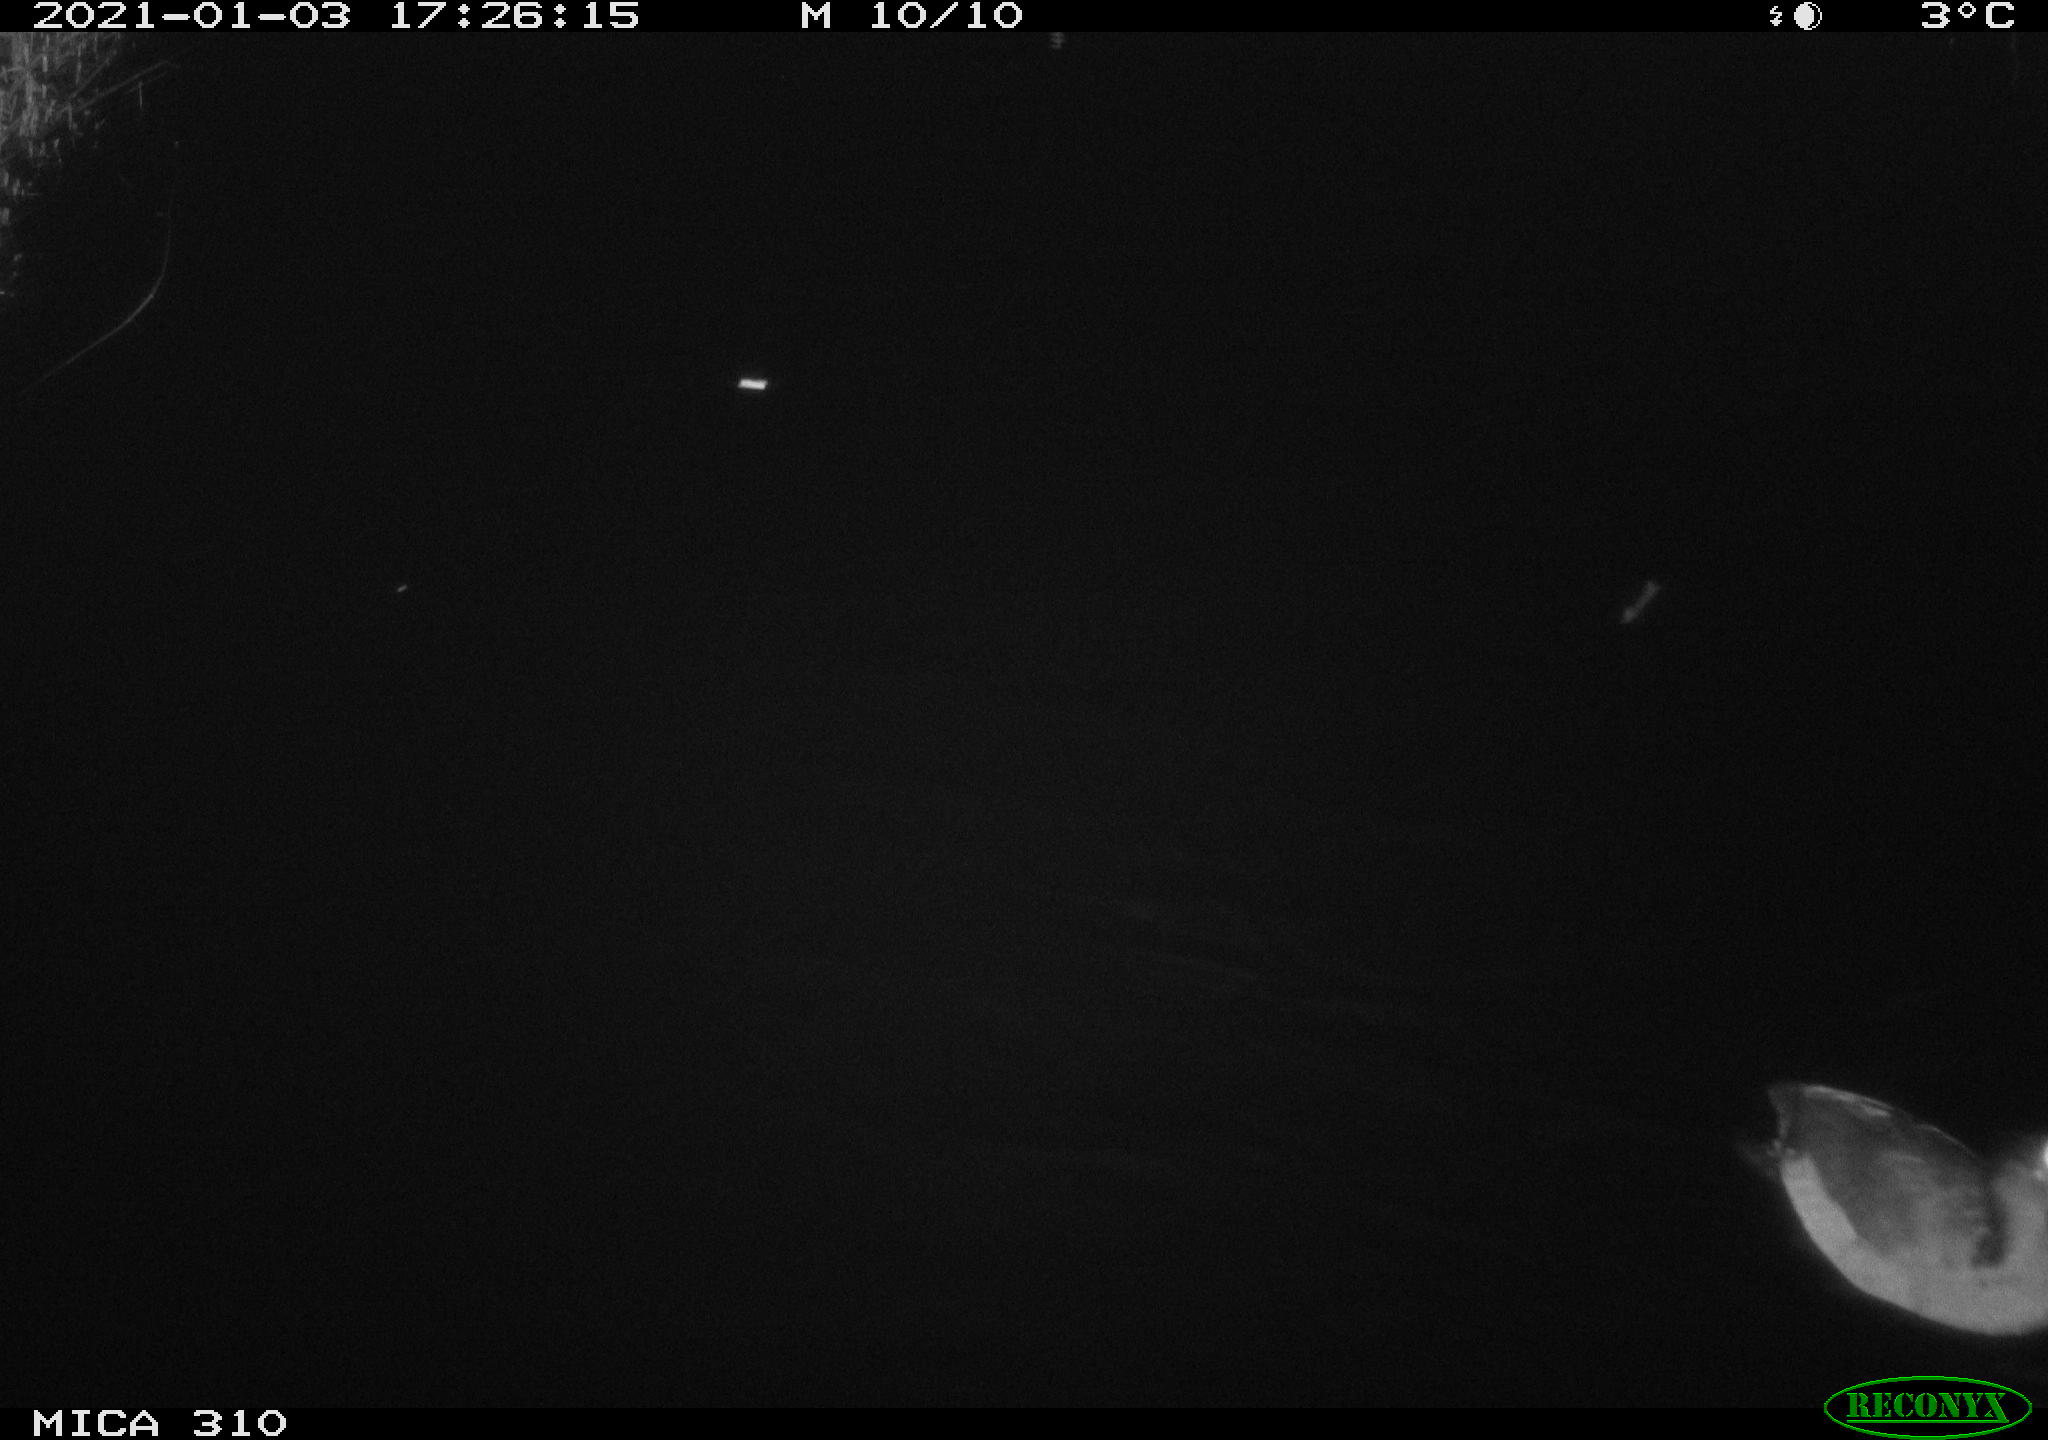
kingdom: Animalia
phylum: Chordata
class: Aves
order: Gruiformes
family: Rallidae
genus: Fulica
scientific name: Fulica atra
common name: Eurasian coot
